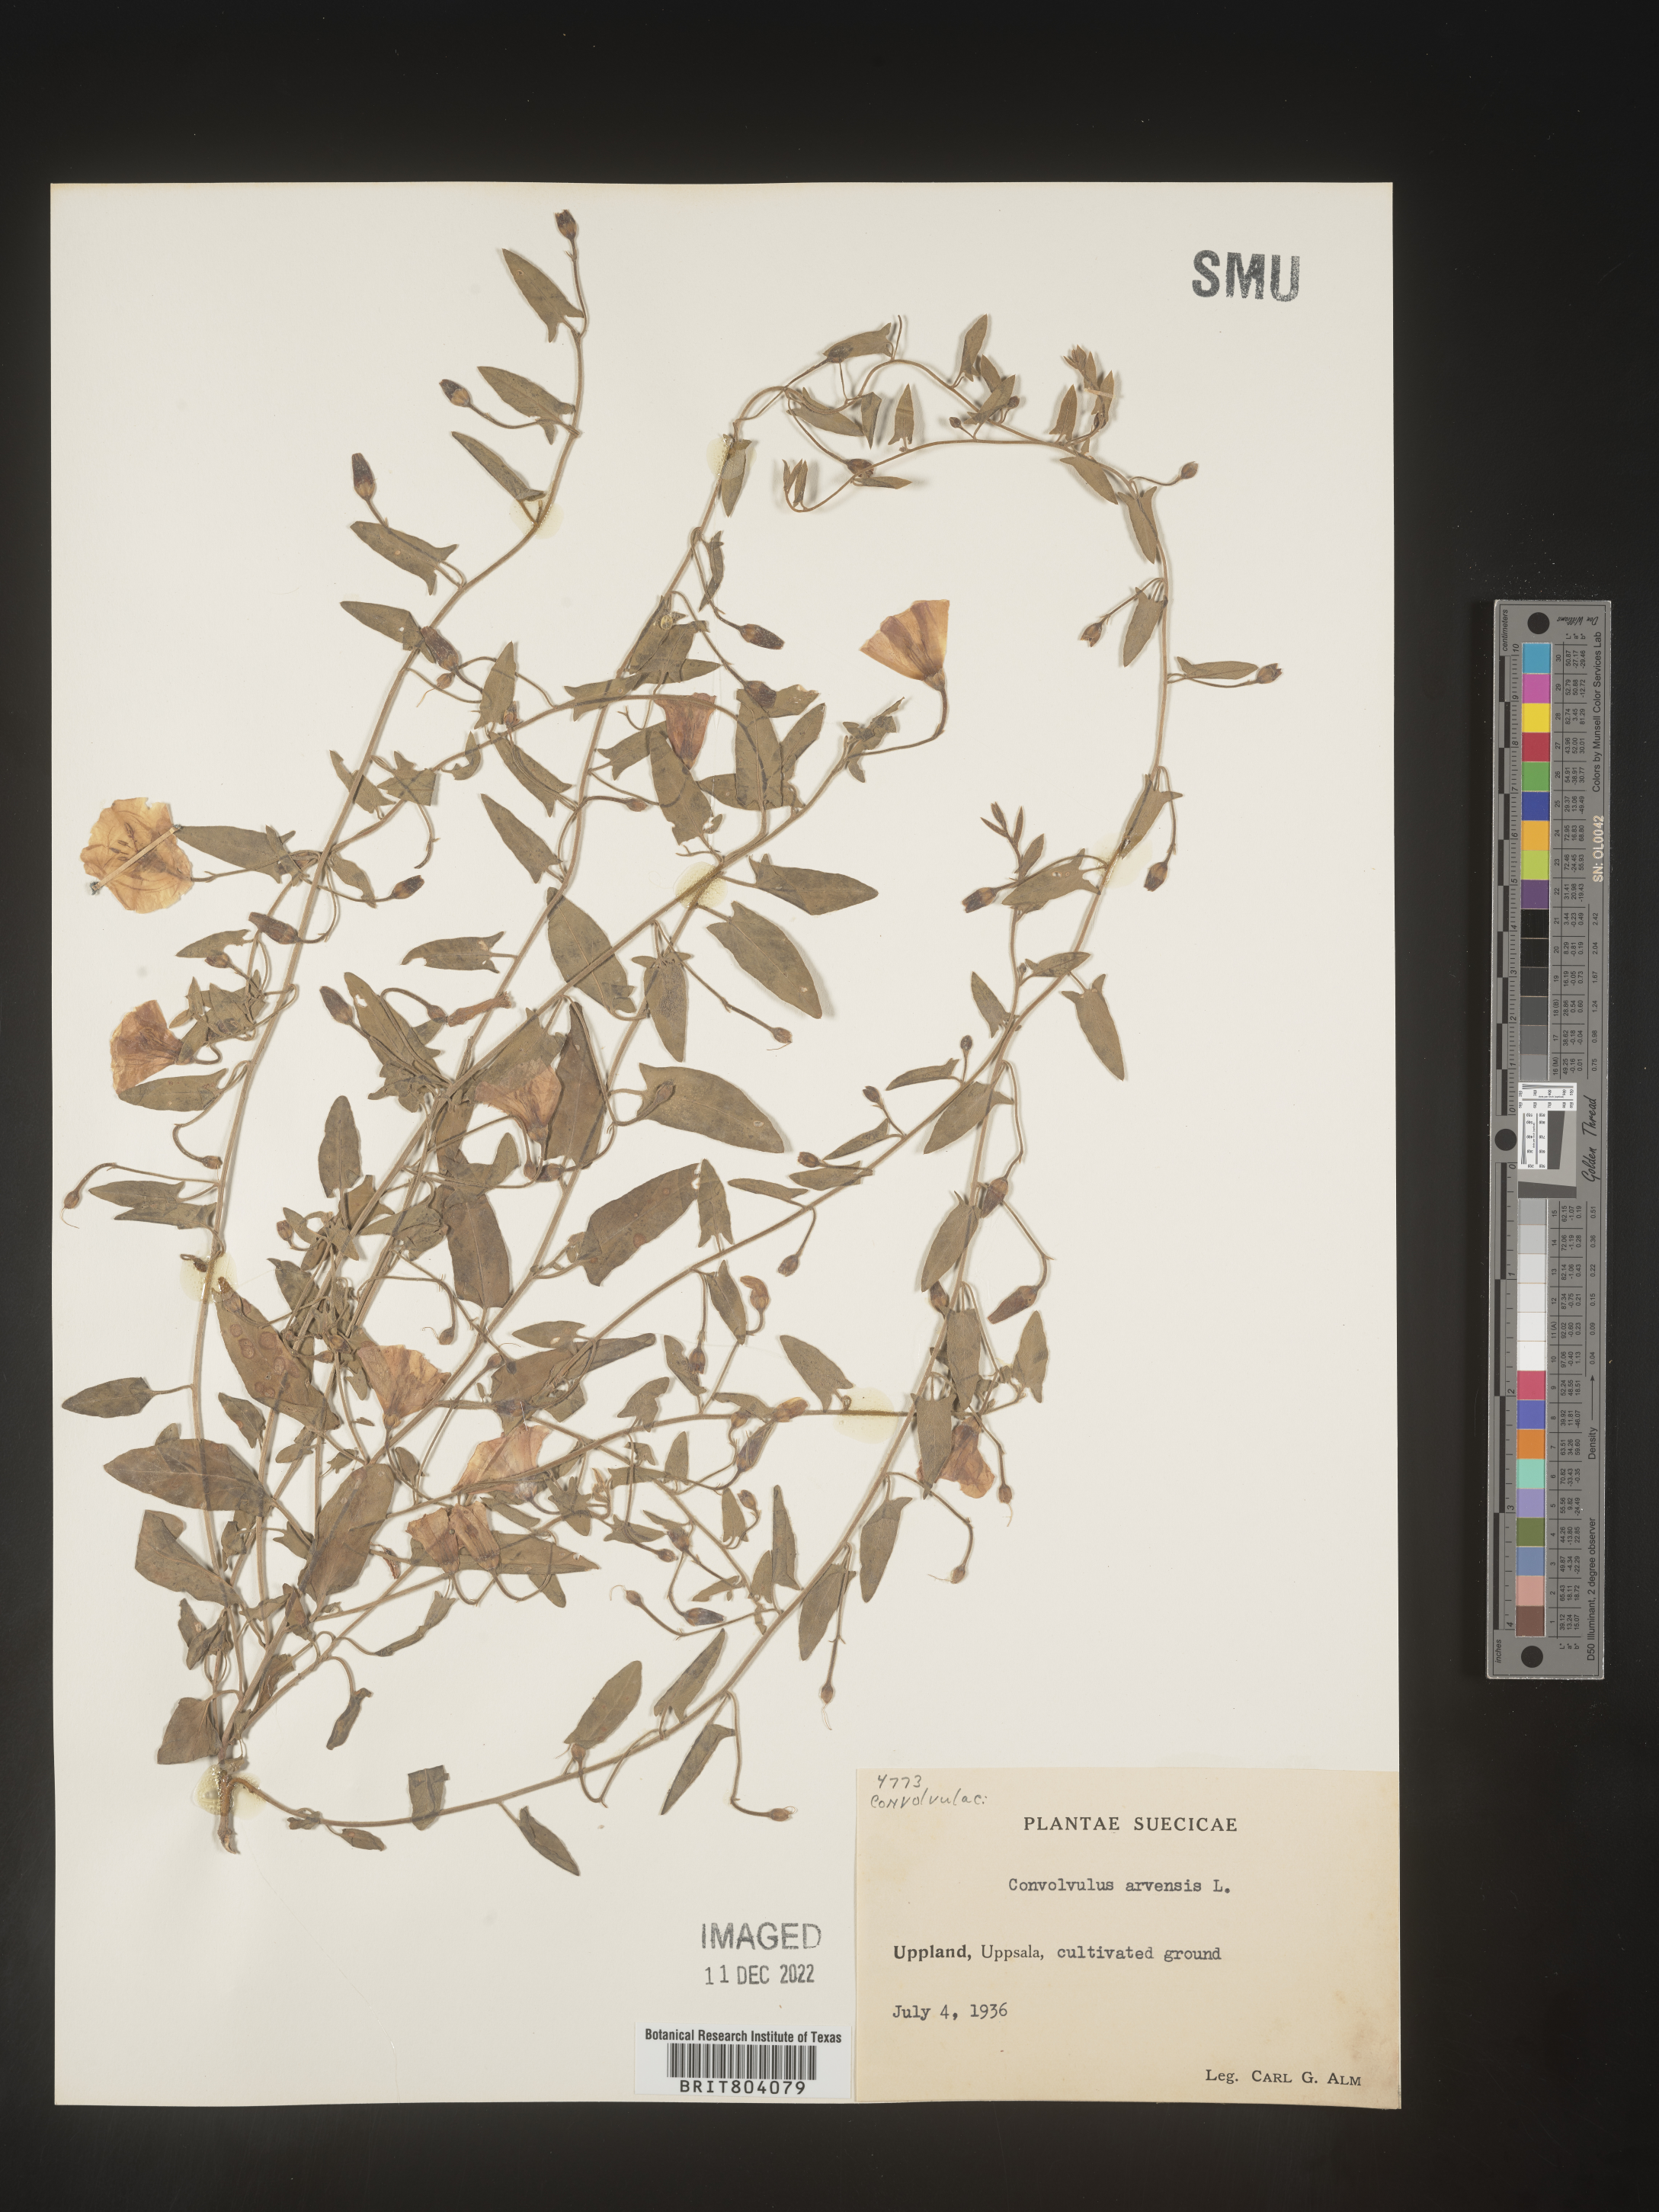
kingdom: Plantae
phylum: Tracheophyta
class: Magnoliopsida
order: Solanales
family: Convolvulaceae
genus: Convolvulus
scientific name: Convolvulus
